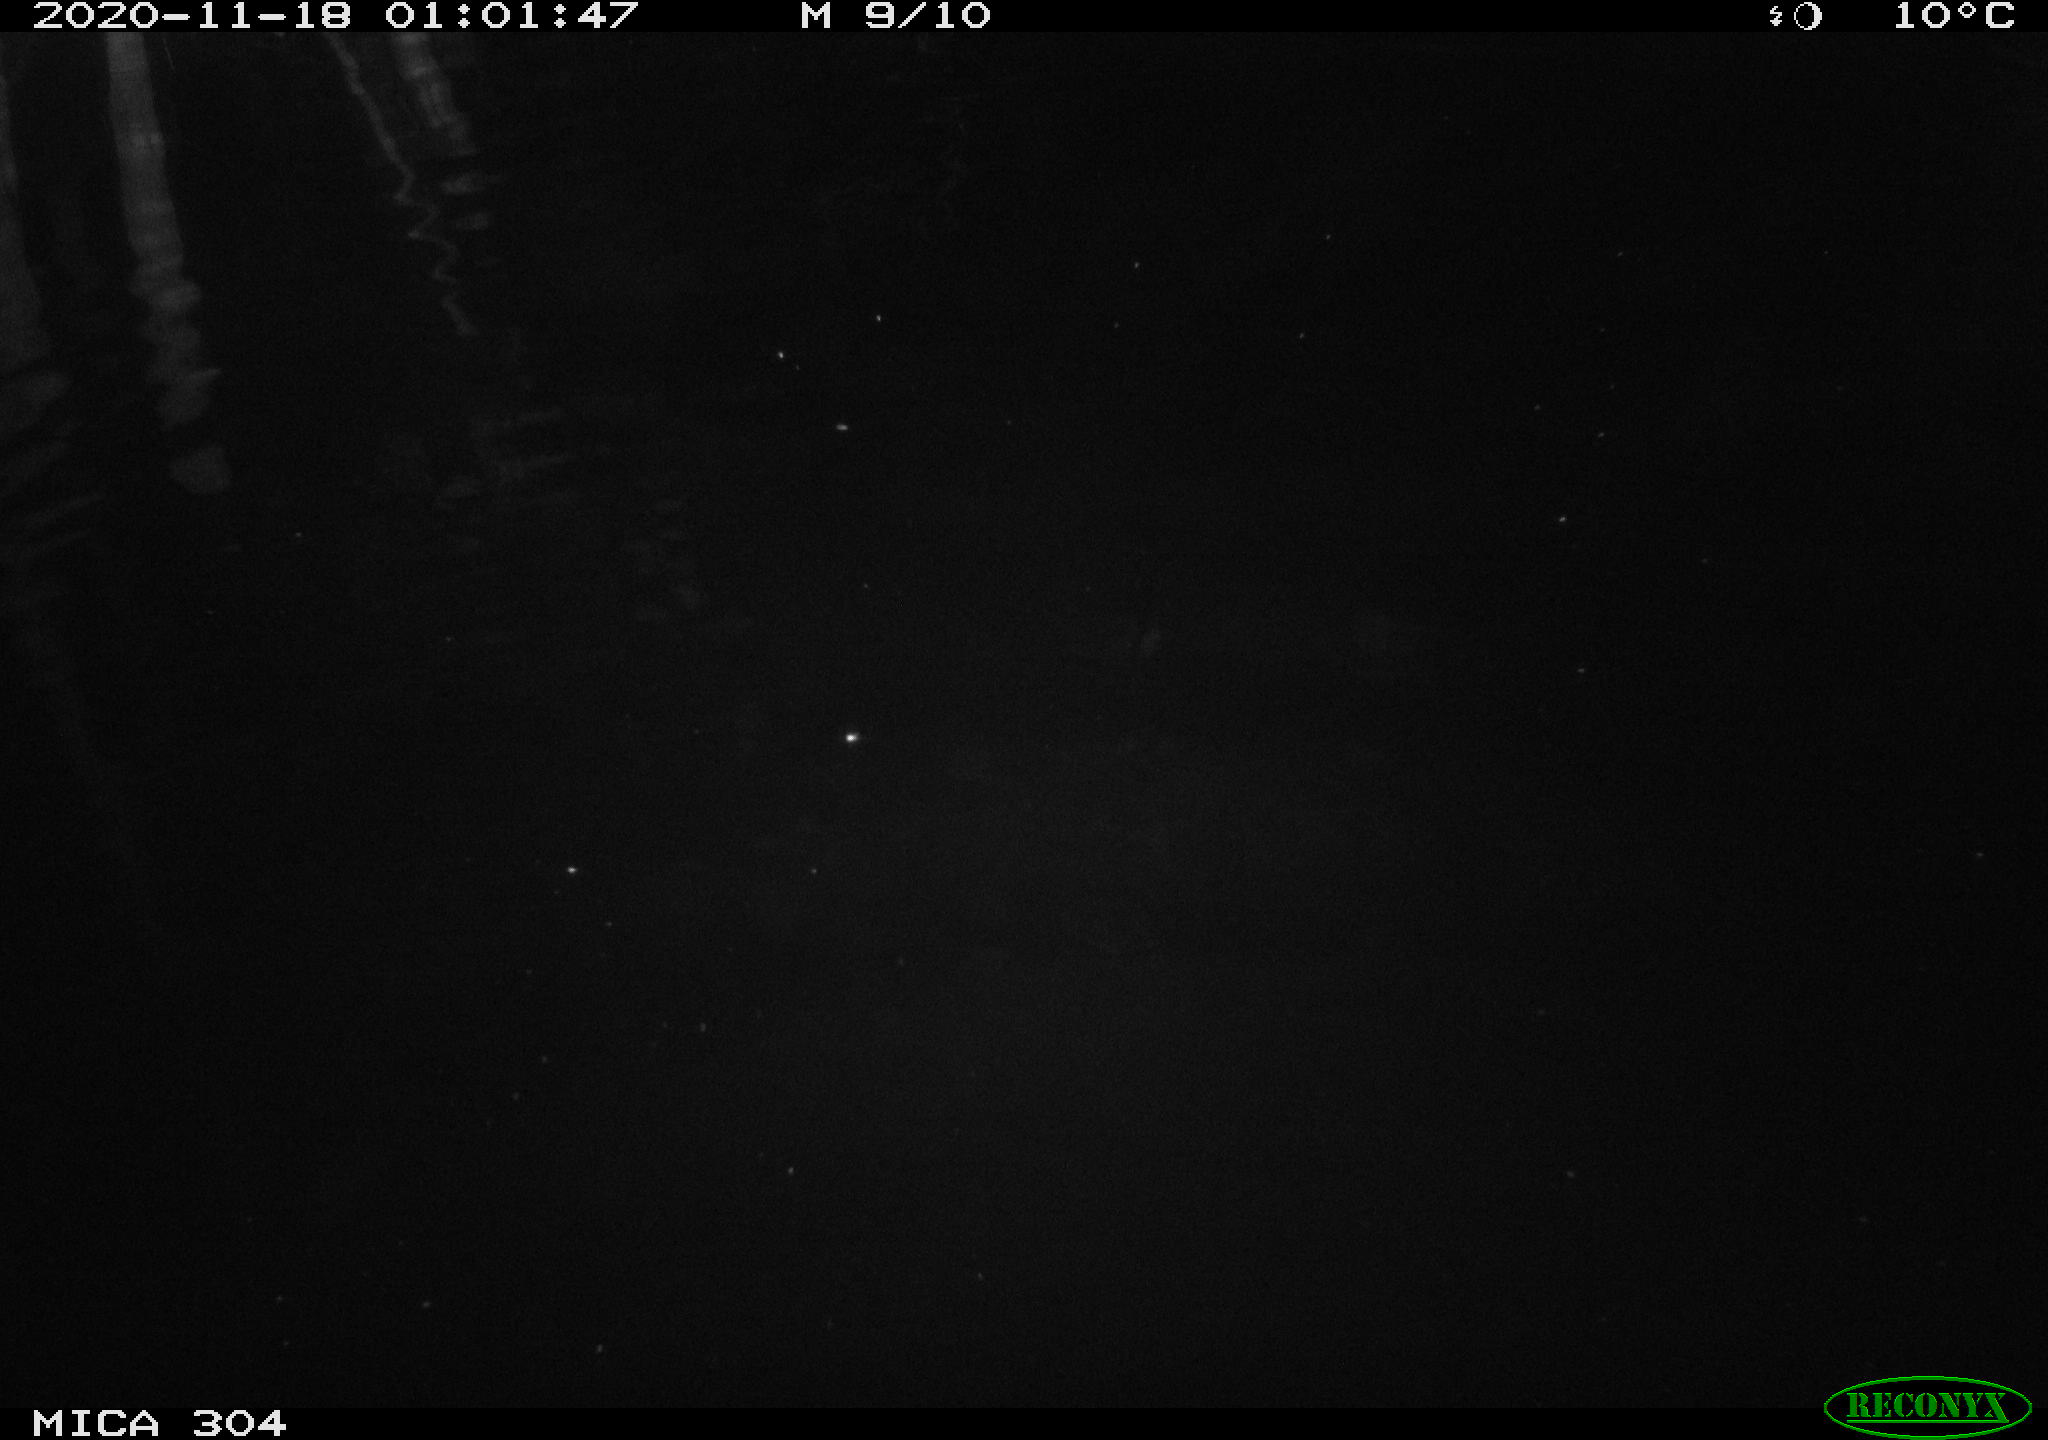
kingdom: Animalia
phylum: Chordata
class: Aves
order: Anseriformes
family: Anatidae
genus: Anas
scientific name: Anas platyrhynchos
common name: Mallard
